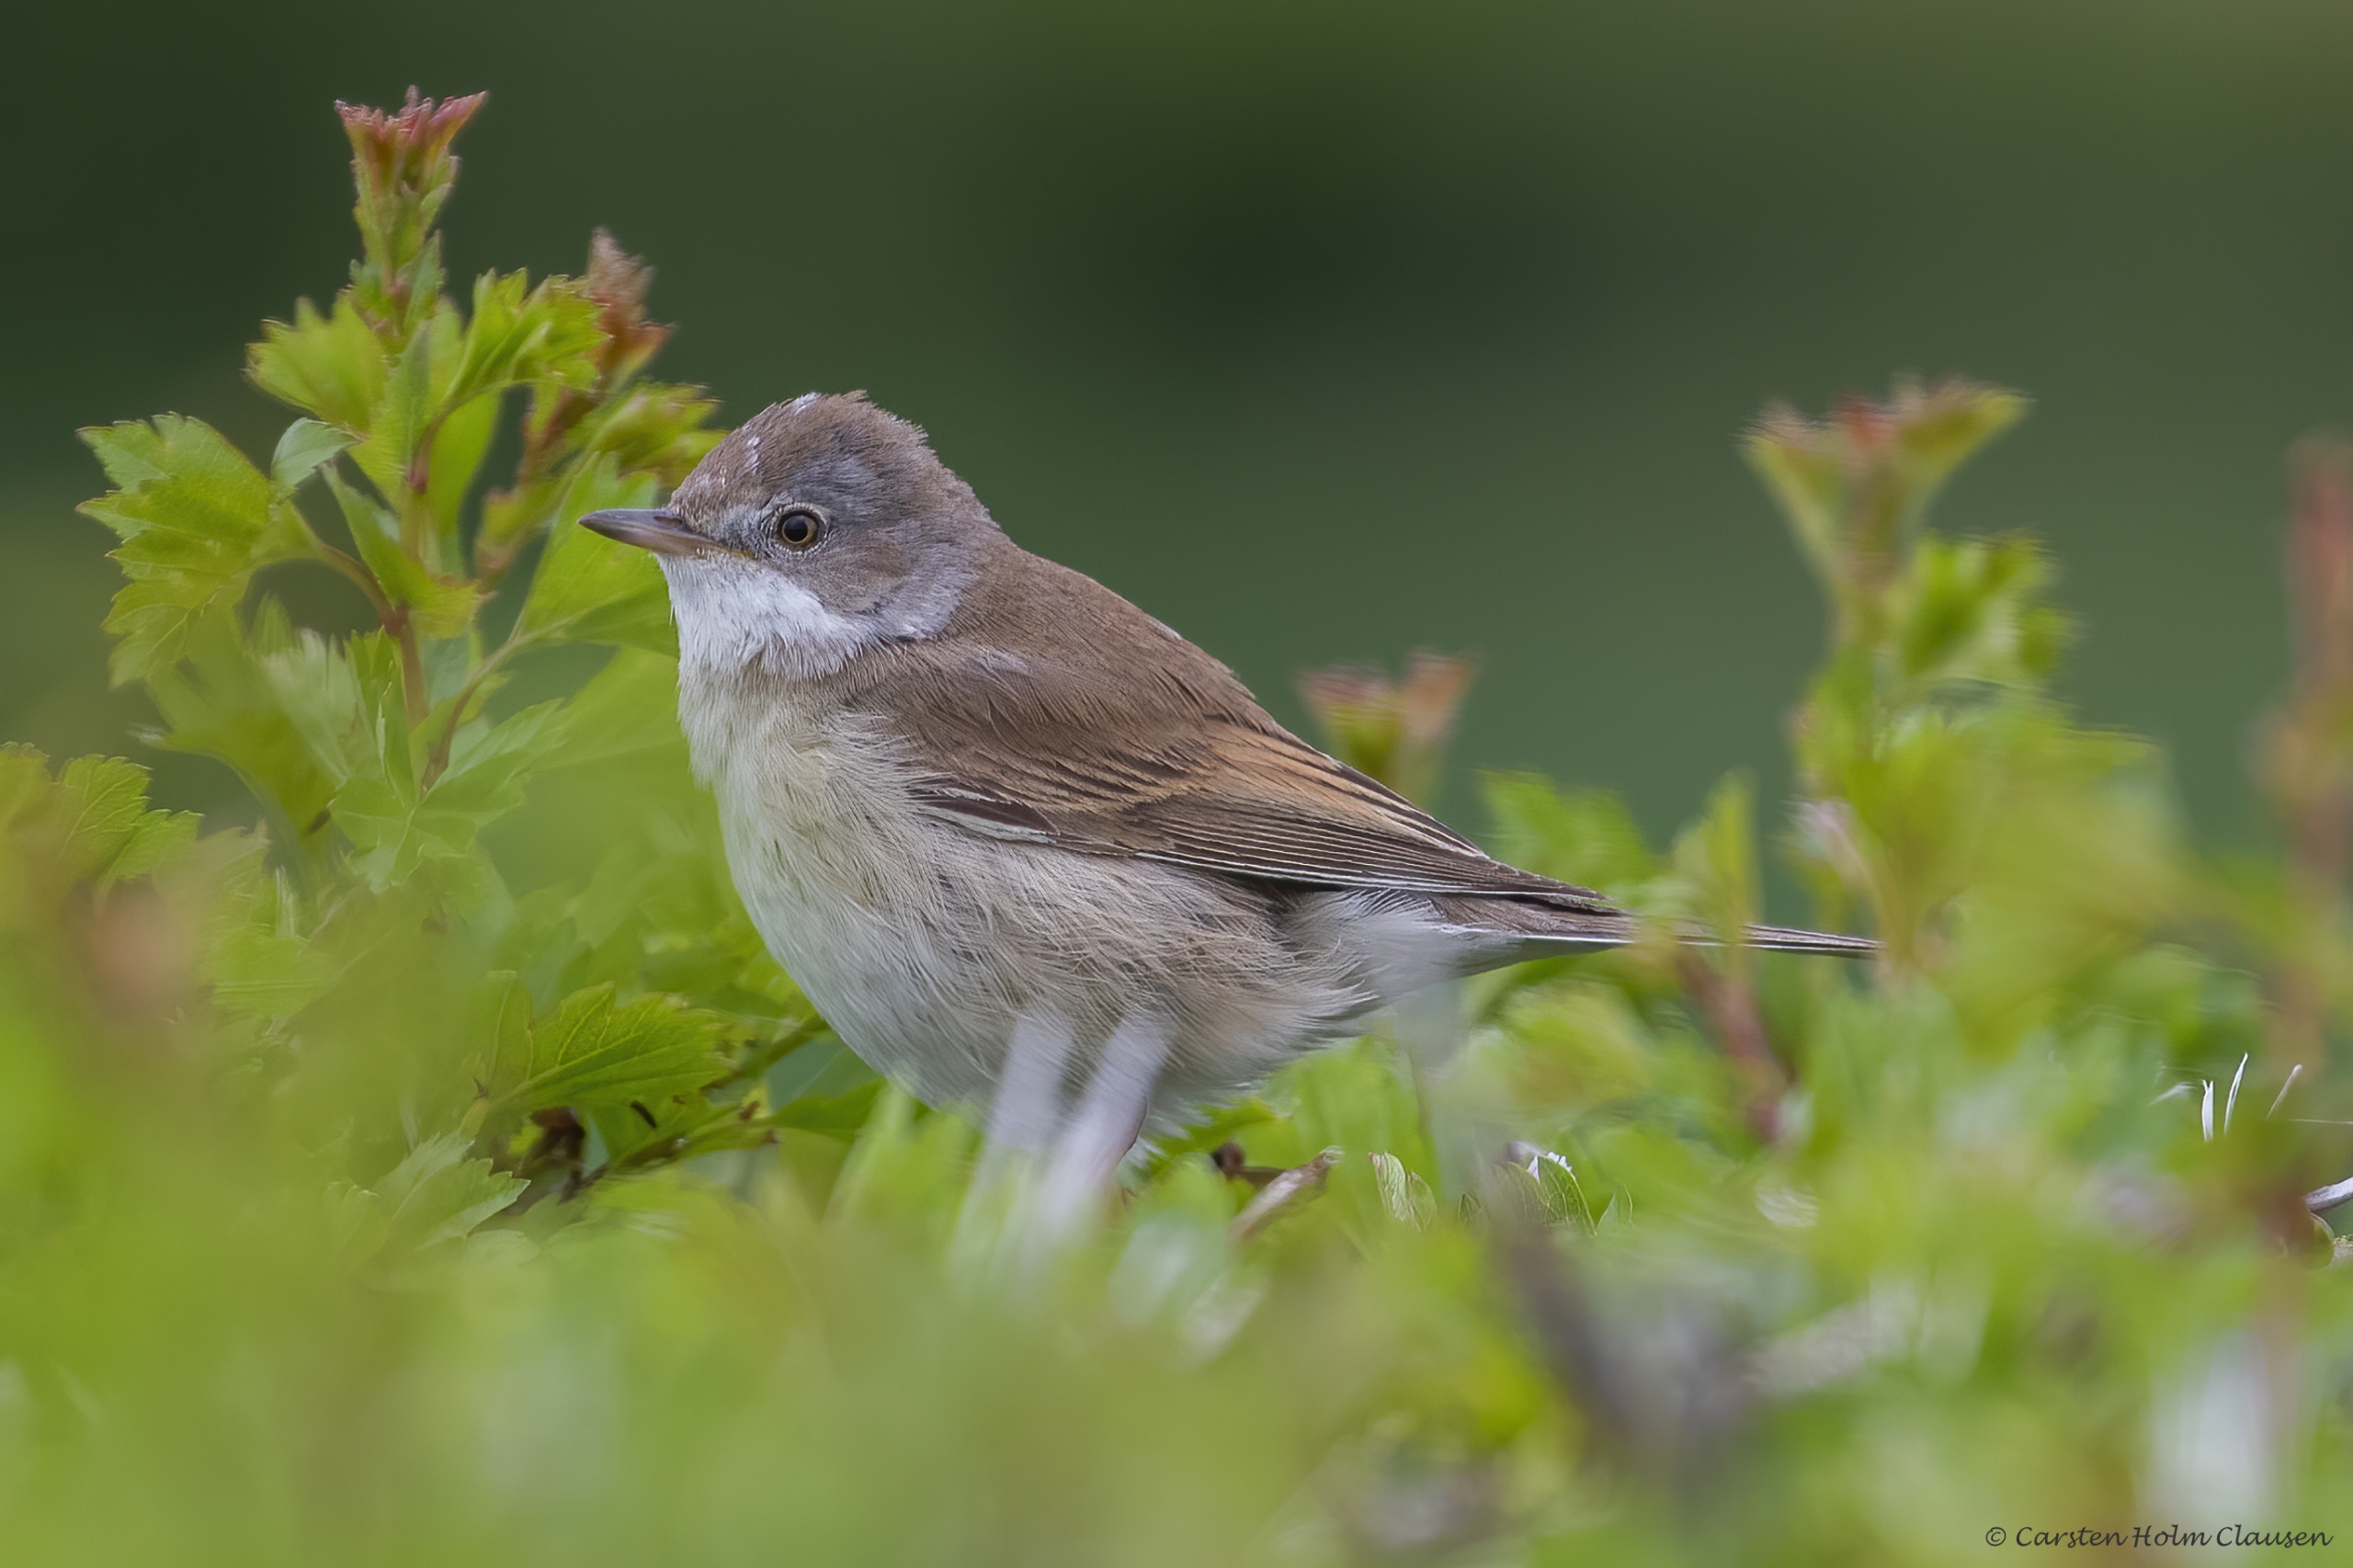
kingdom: Animalia
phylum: Chordata
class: Aves
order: Passeriformes
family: Sylviidae
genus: Sylvia
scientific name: Sylvia communis
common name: Tornsanger
